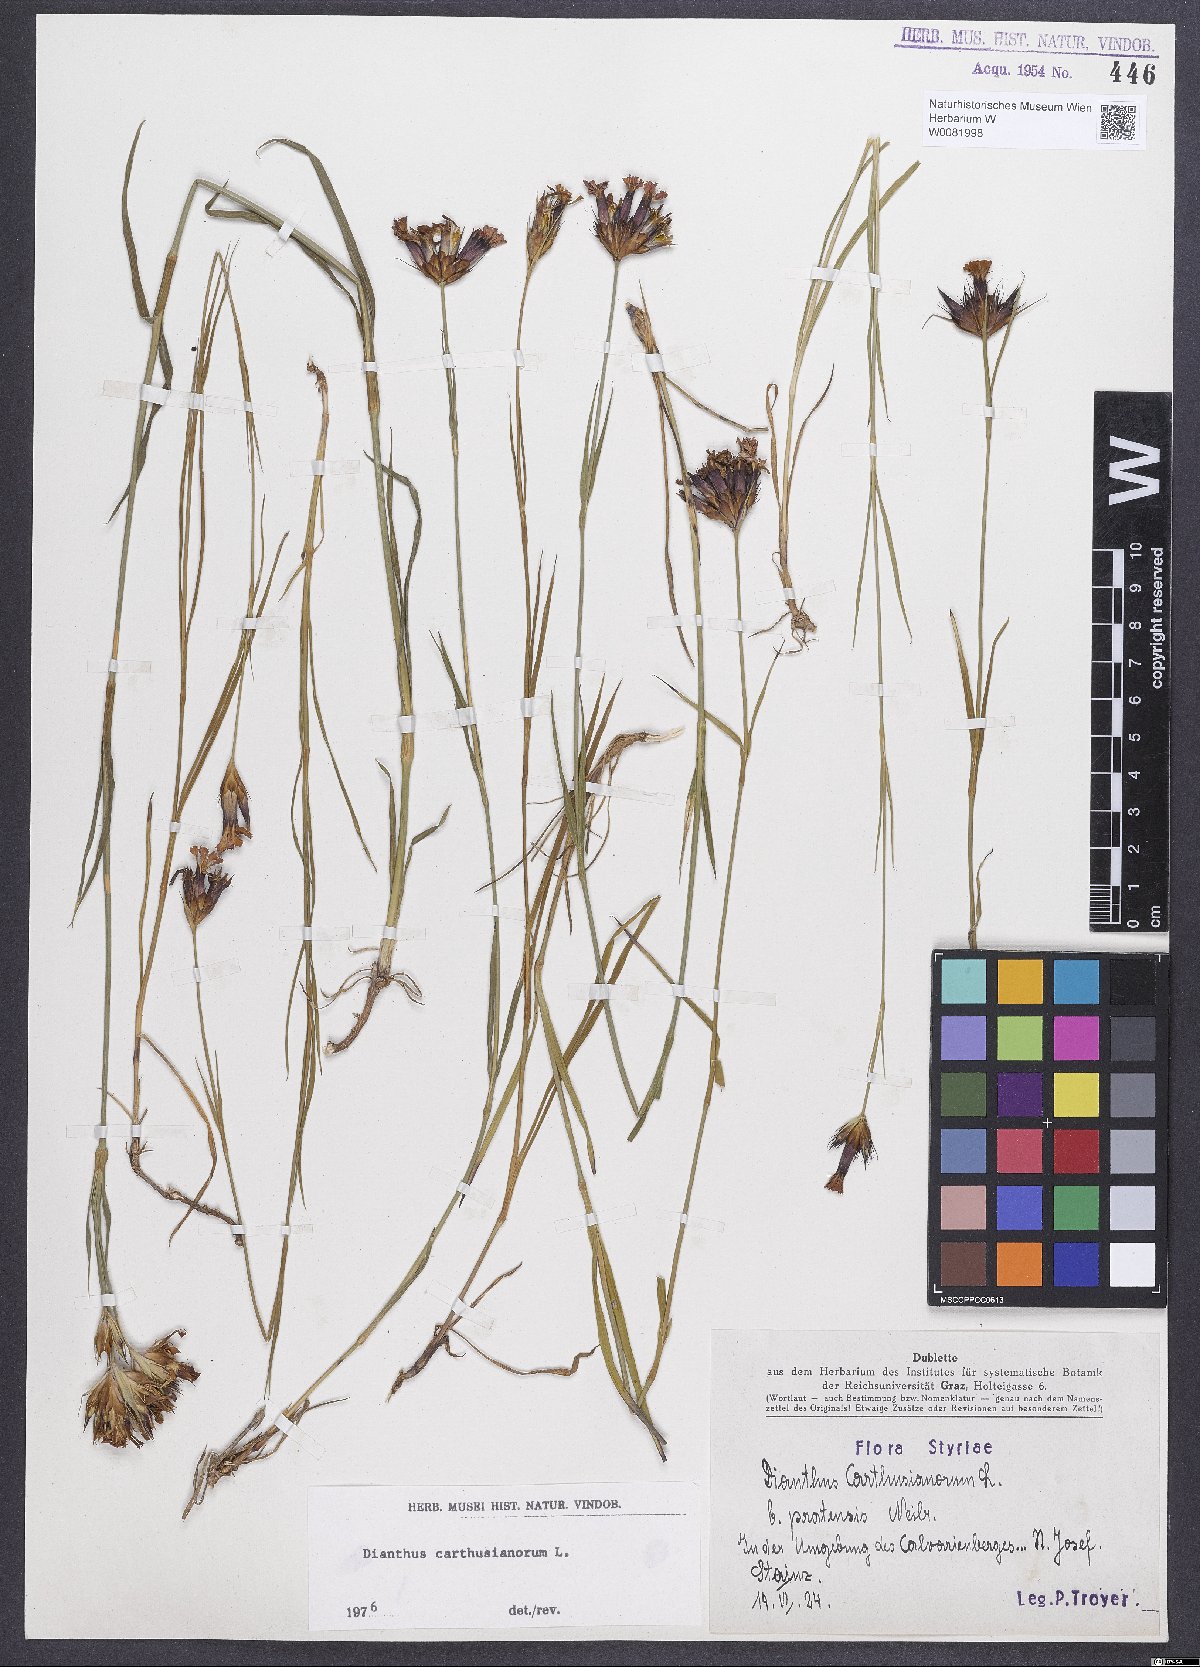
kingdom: Plantae
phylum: Tracheophyta
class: Magnoliopsida
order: Caryophyllales
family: Caryophyllaceae
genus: Dianthus
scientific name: Dianthus carthusianorum
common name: Carthusian pink
